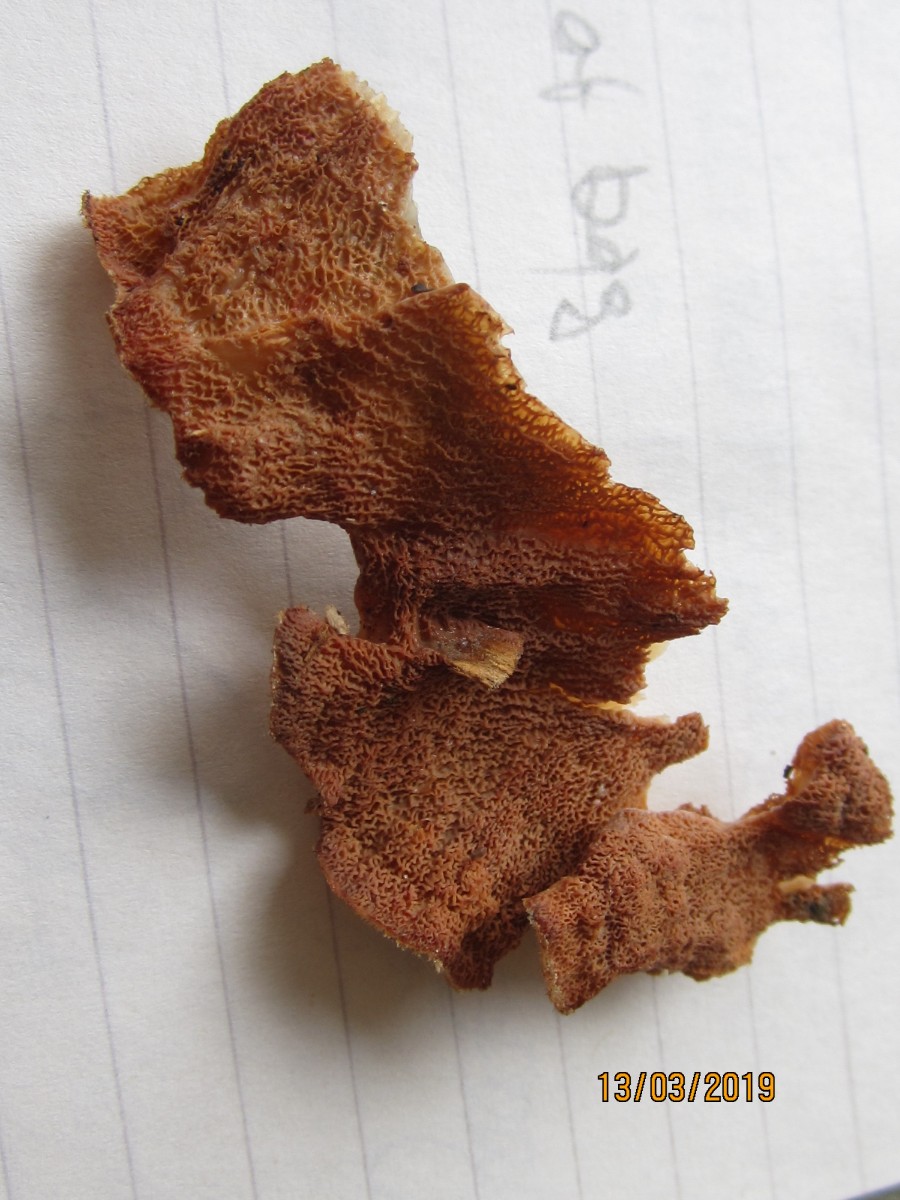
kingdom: Fungi
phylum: Basidiomycota
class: Agaricomycetes
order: Polyporales
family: Meruliaceae
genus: Phlebia
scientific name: Phlebia tremellosa
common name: bævrende åresvamp
